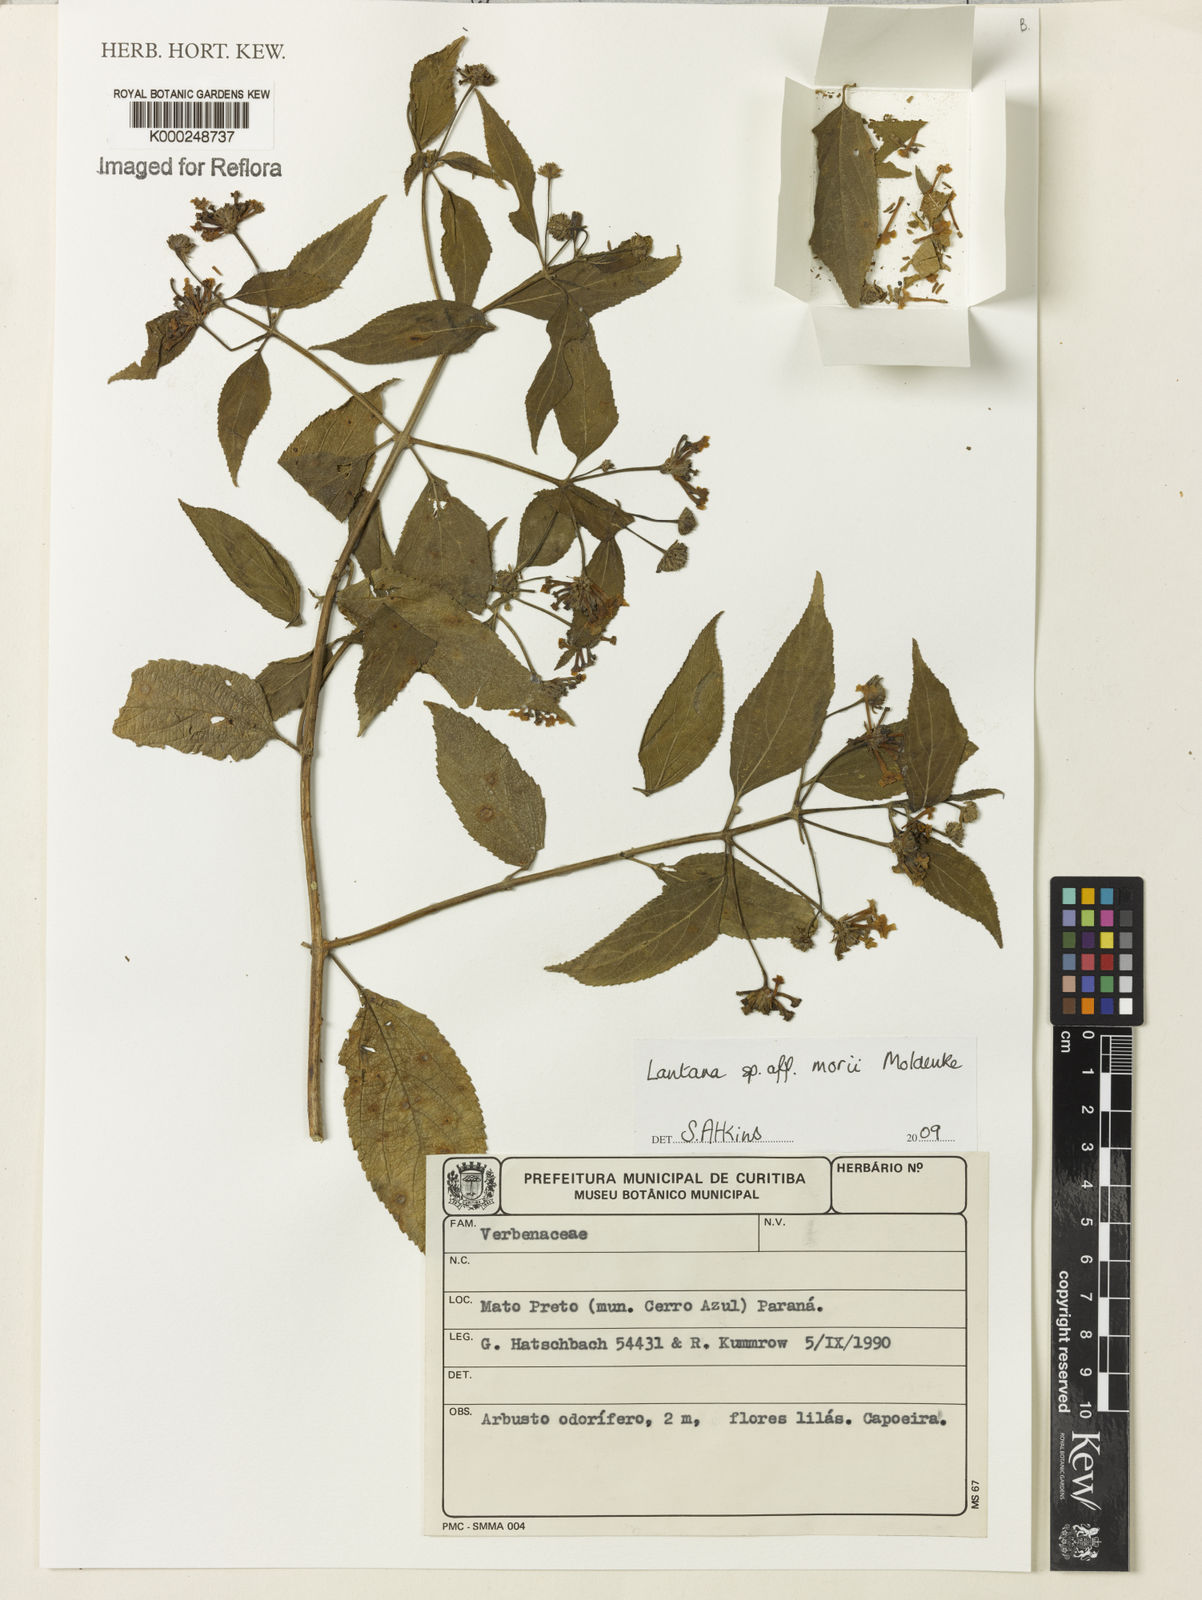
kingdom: Plantae
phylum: Tracheophyta
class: Magnoliopsida
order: Lamiales
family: Verbenaceae
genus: Lantana
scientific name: Lantana
